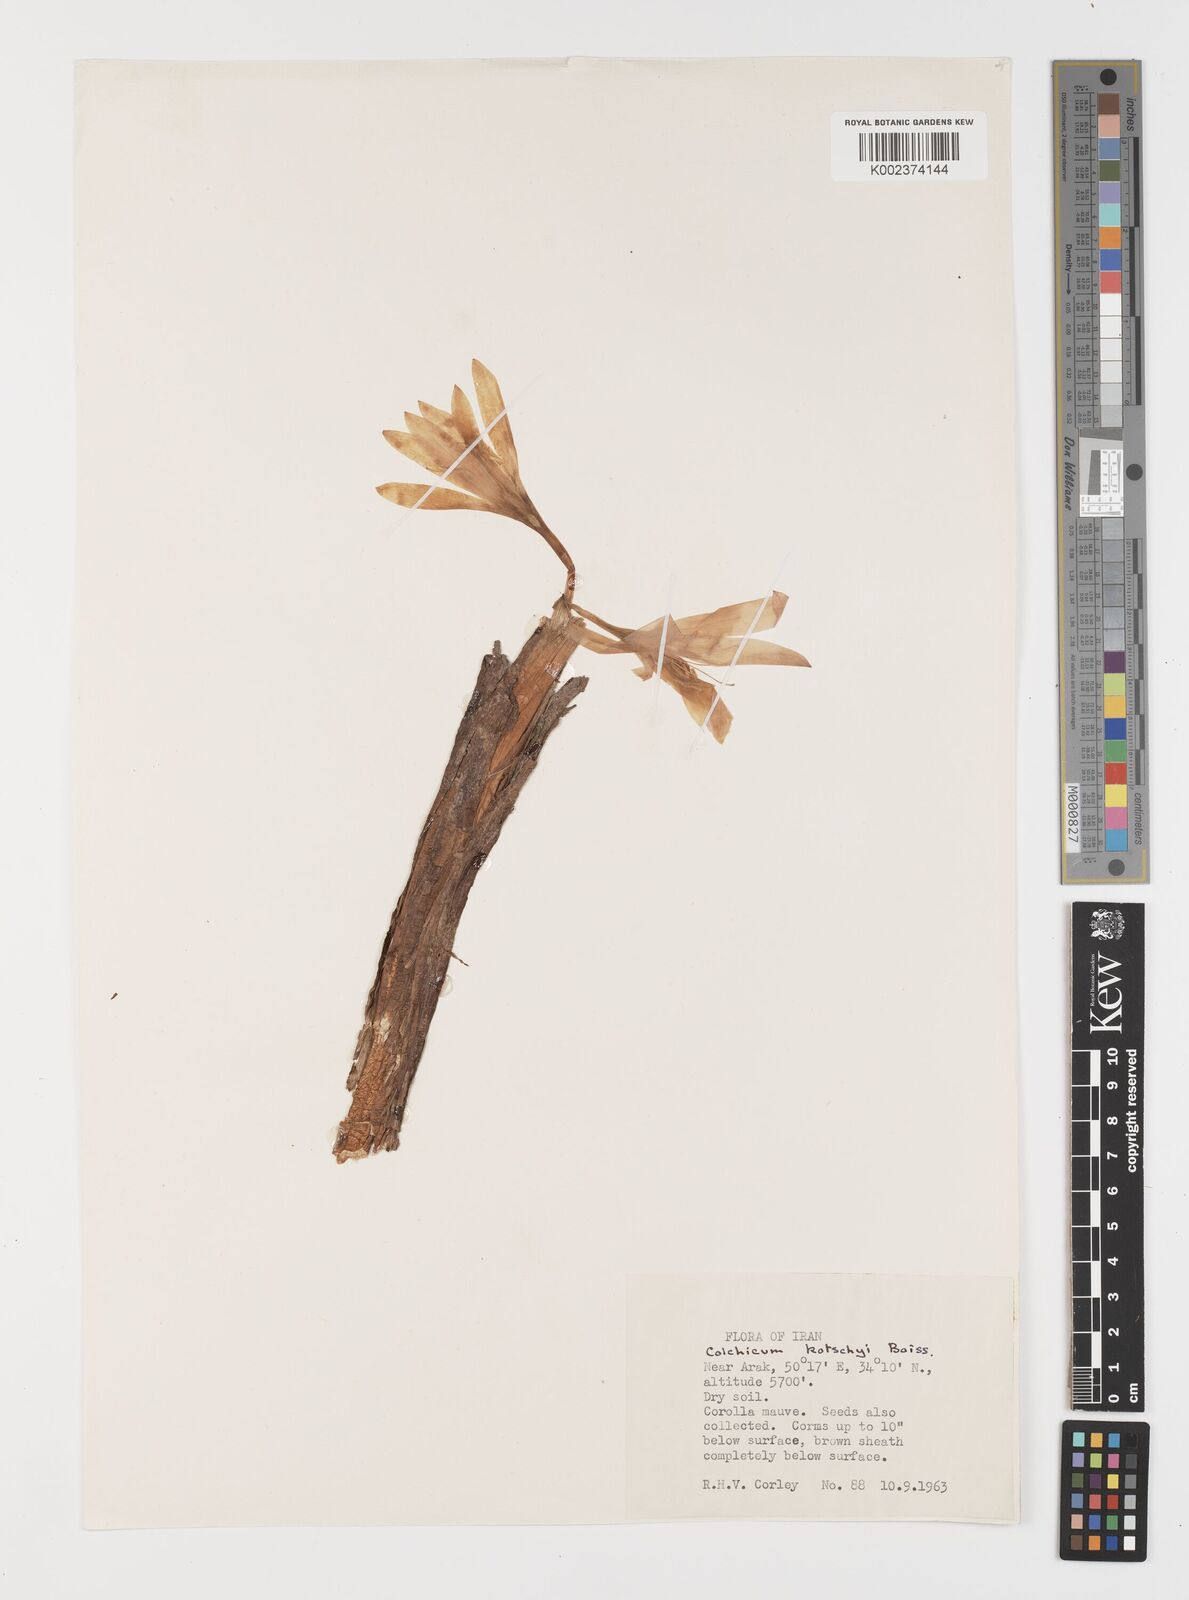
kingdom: Plantae
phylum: Tracheophyta
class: Liliopsida
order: Liliales
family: Colchicaceae
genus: Colchicum
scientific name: Colchicum persicum
